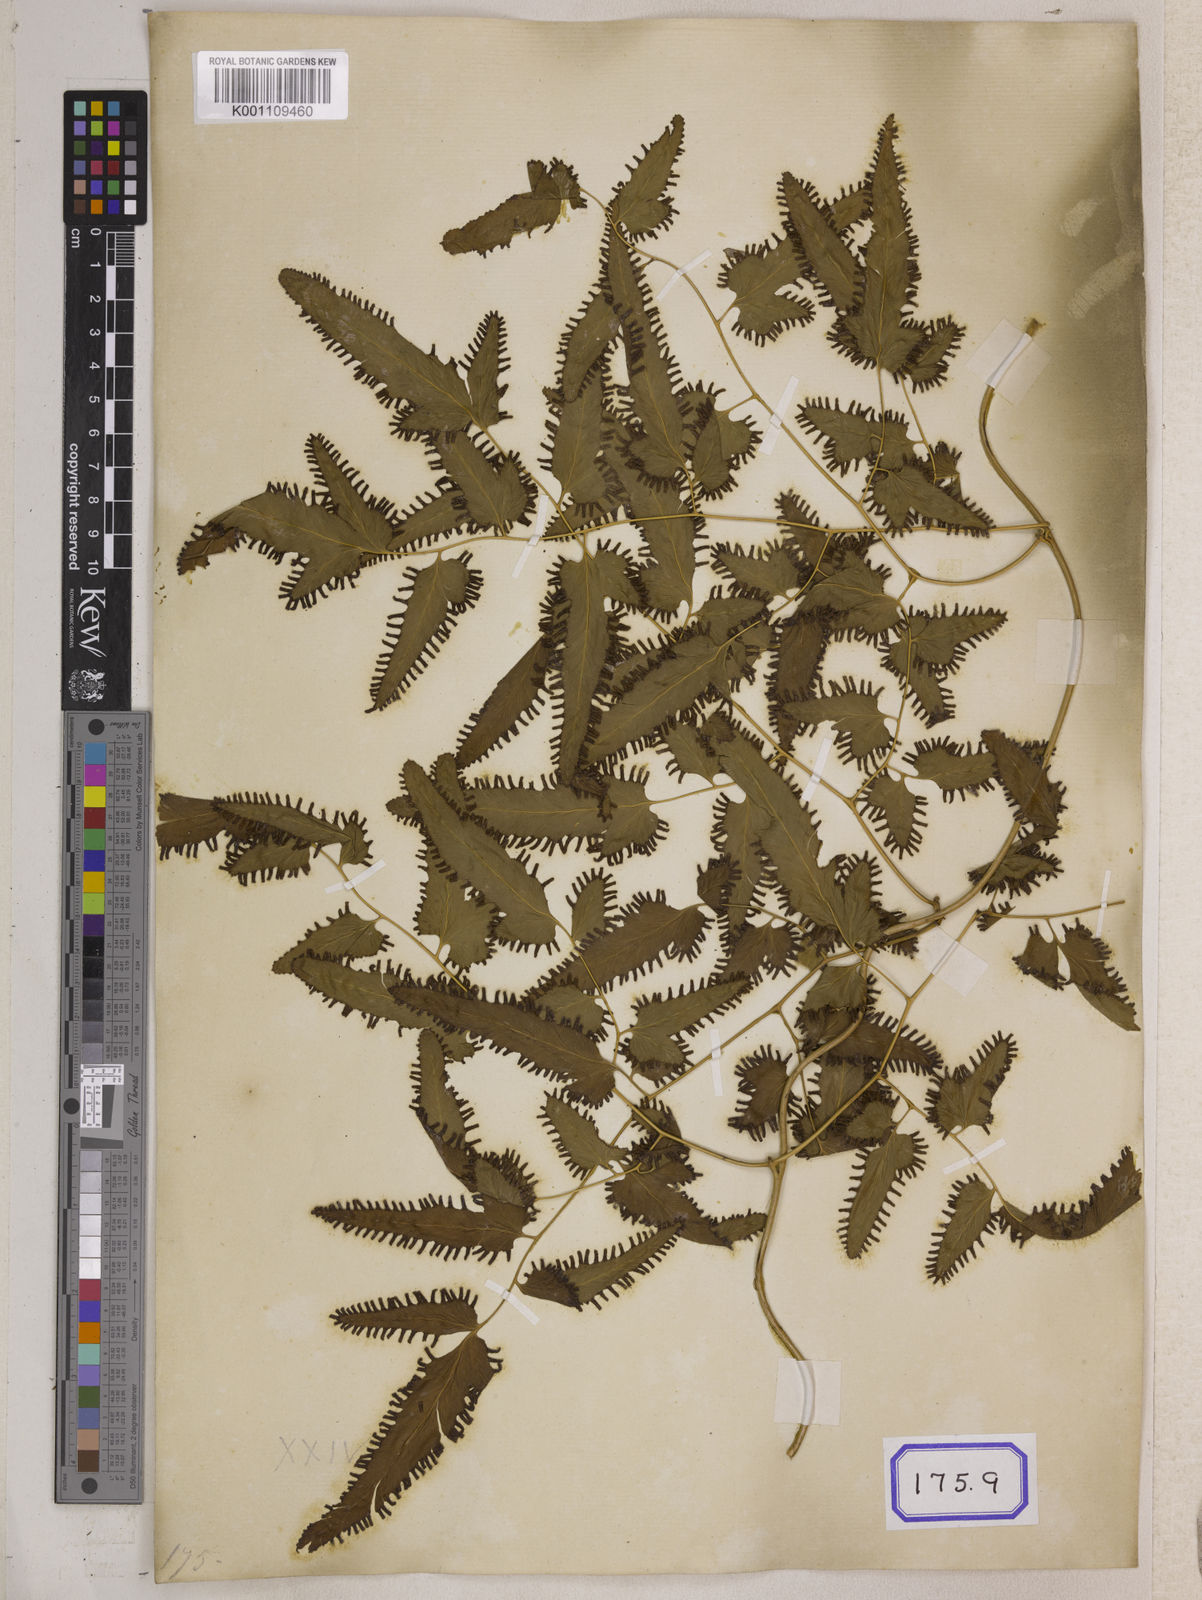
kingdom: Plantae
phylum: Tracheophyta
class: Polypodiopsida
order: Schizaeales
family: Lygodiaceae
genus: Lygodium
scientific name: Lygodium flexuosum
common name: Maidenhair creeper
